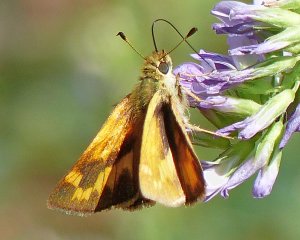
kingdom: Animalia
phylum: Arthropoda
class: Insecta
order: Lepidoptera
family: Hesperiidae
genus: Ochlodes
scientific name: Ochlodes sylvanoides
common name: Woodland Skipper
